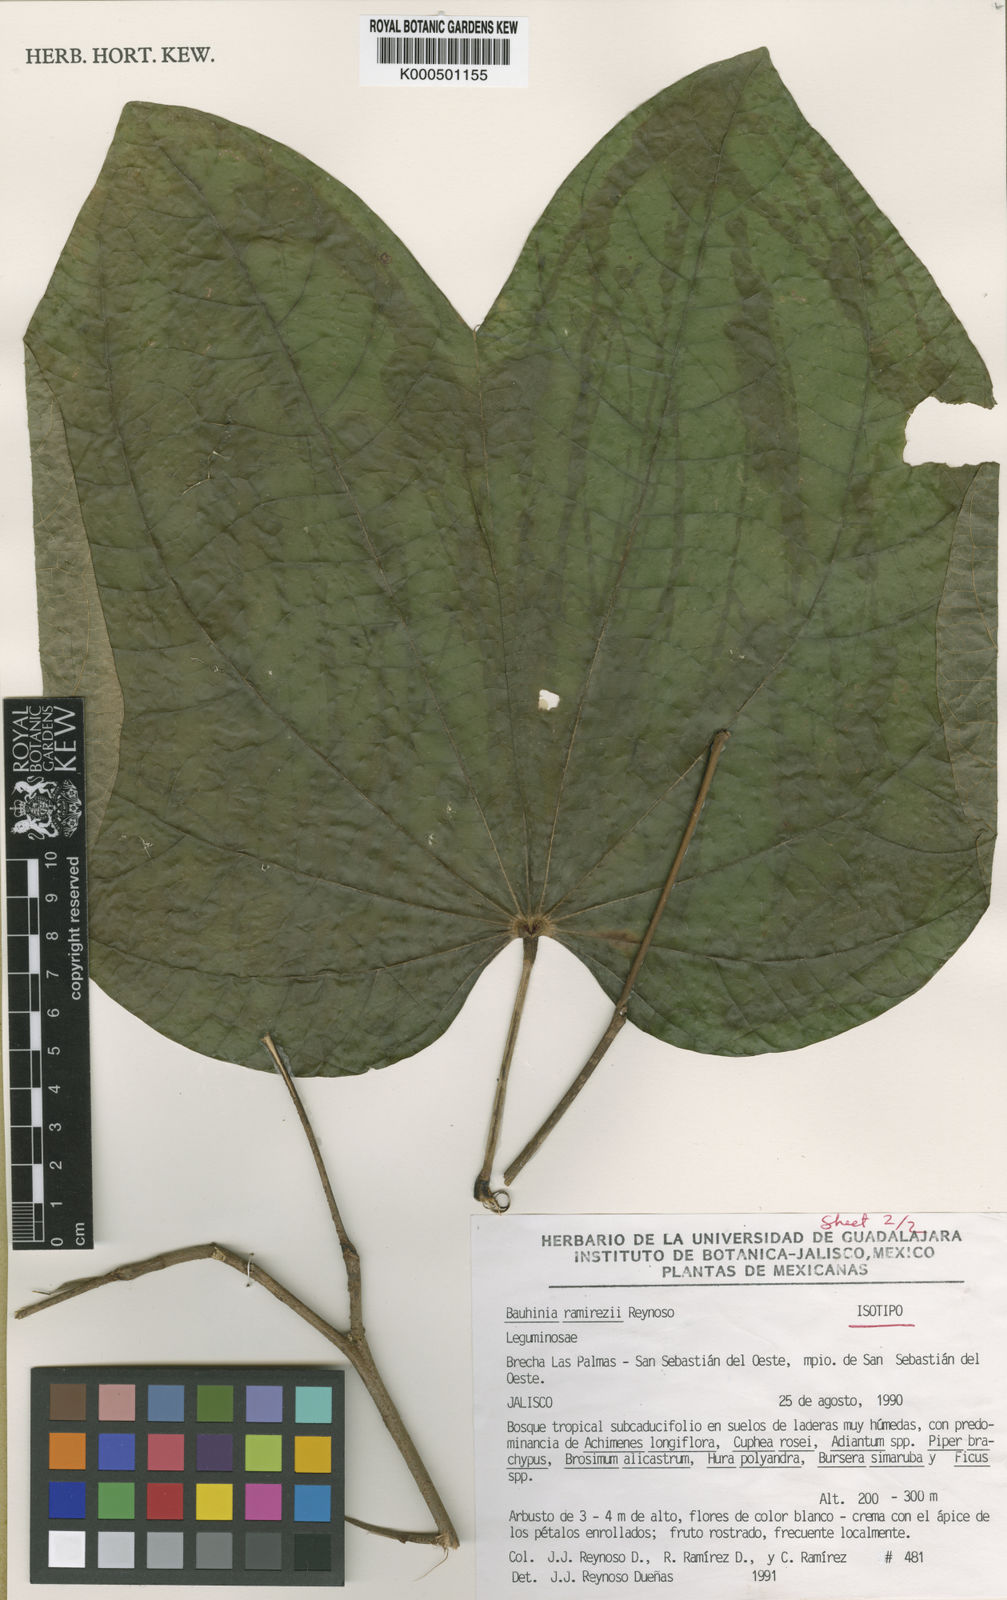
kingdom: Plantae
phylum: Tracheophyta
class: Magnoliopsida
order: Fabales
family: Fabaceae
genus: Bauhinia
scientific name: Bauhinia ramirezii
